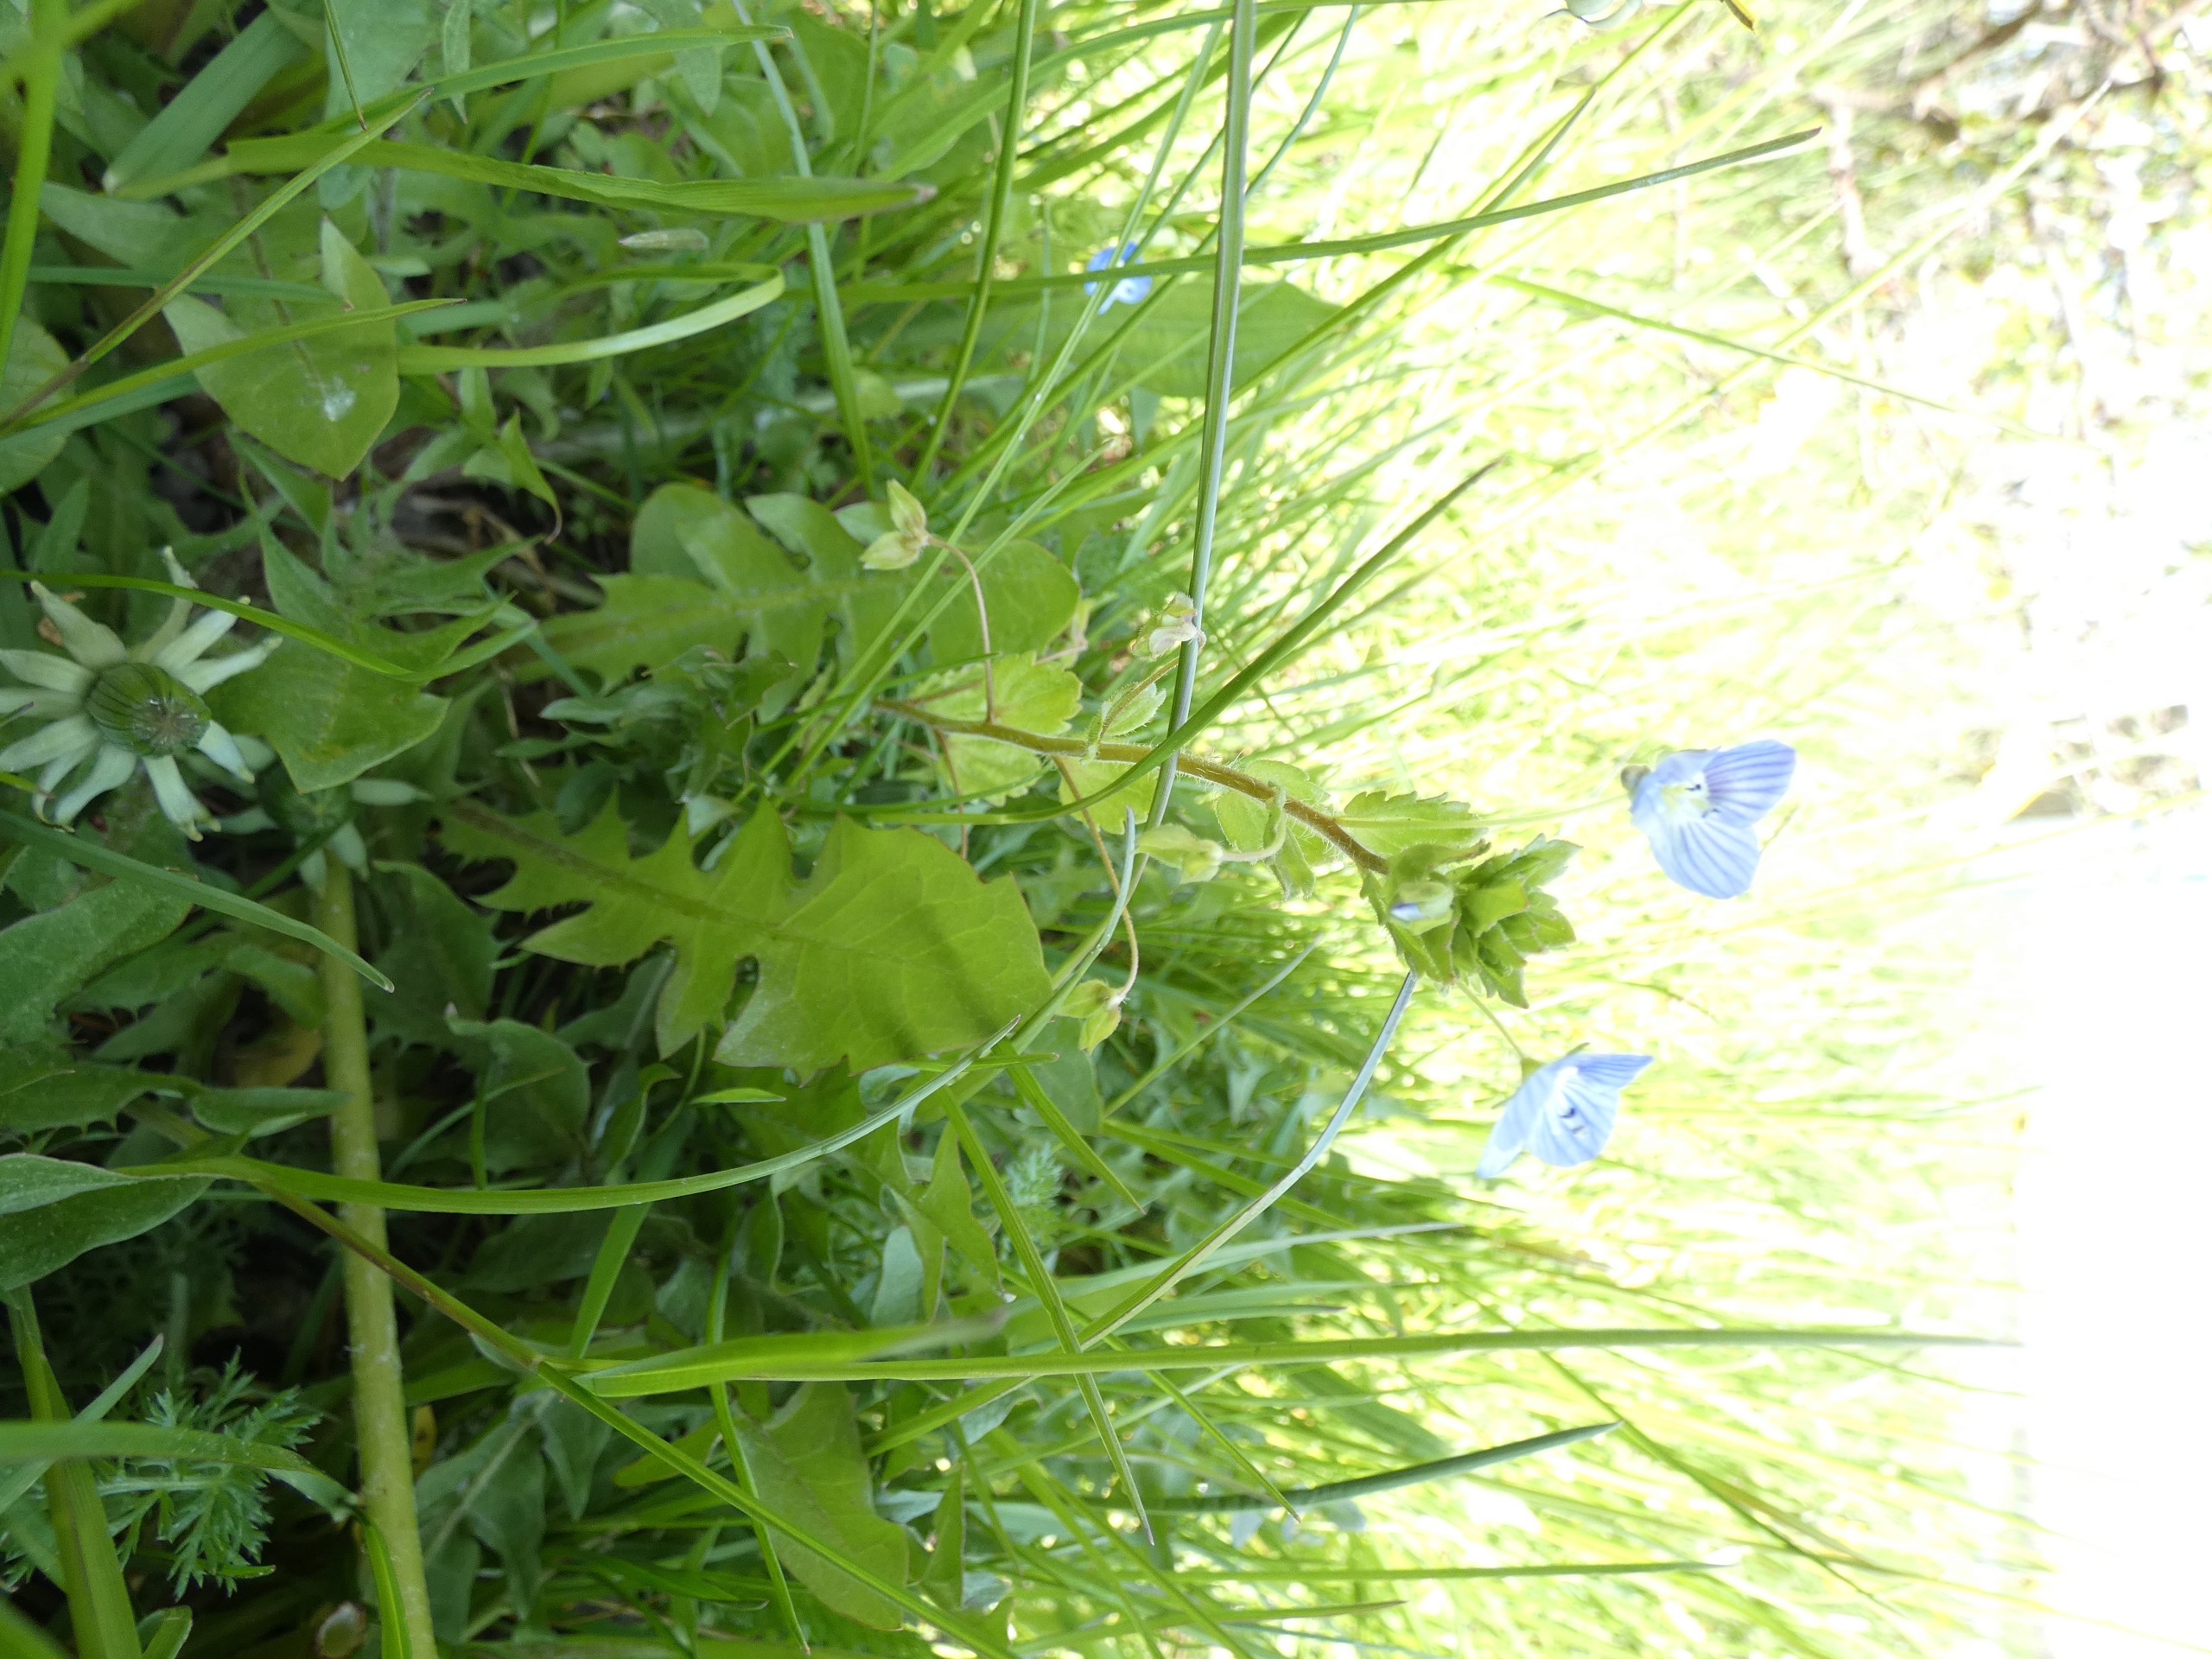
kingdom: Plantae
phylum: Tracheophyta
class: Magnoliopsida
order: Lamiales
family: Plantaginaceae
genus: Veronica
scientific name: Veronica persica
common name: Storkronet ærenpris
